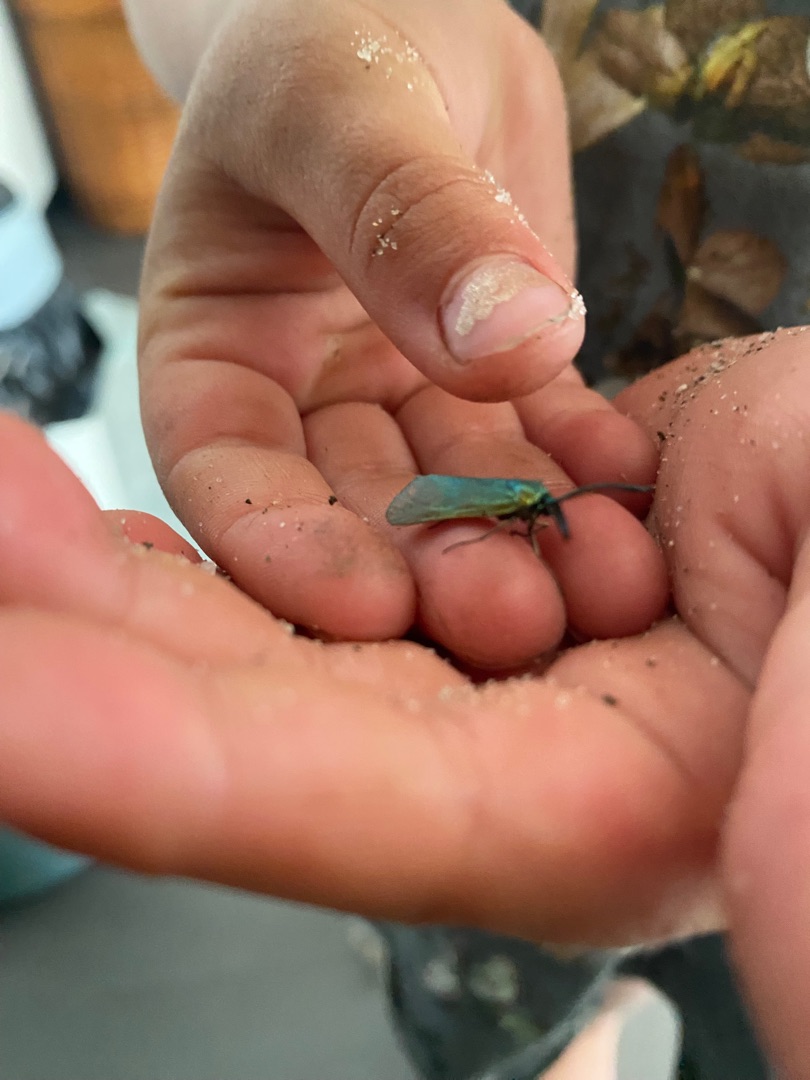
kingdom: Animalia
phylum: Arthropoda
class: Insecta
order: Lepidoptera
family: Zygaenidae
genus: Adscita
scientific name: Adscita statices
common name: Metalvinge
